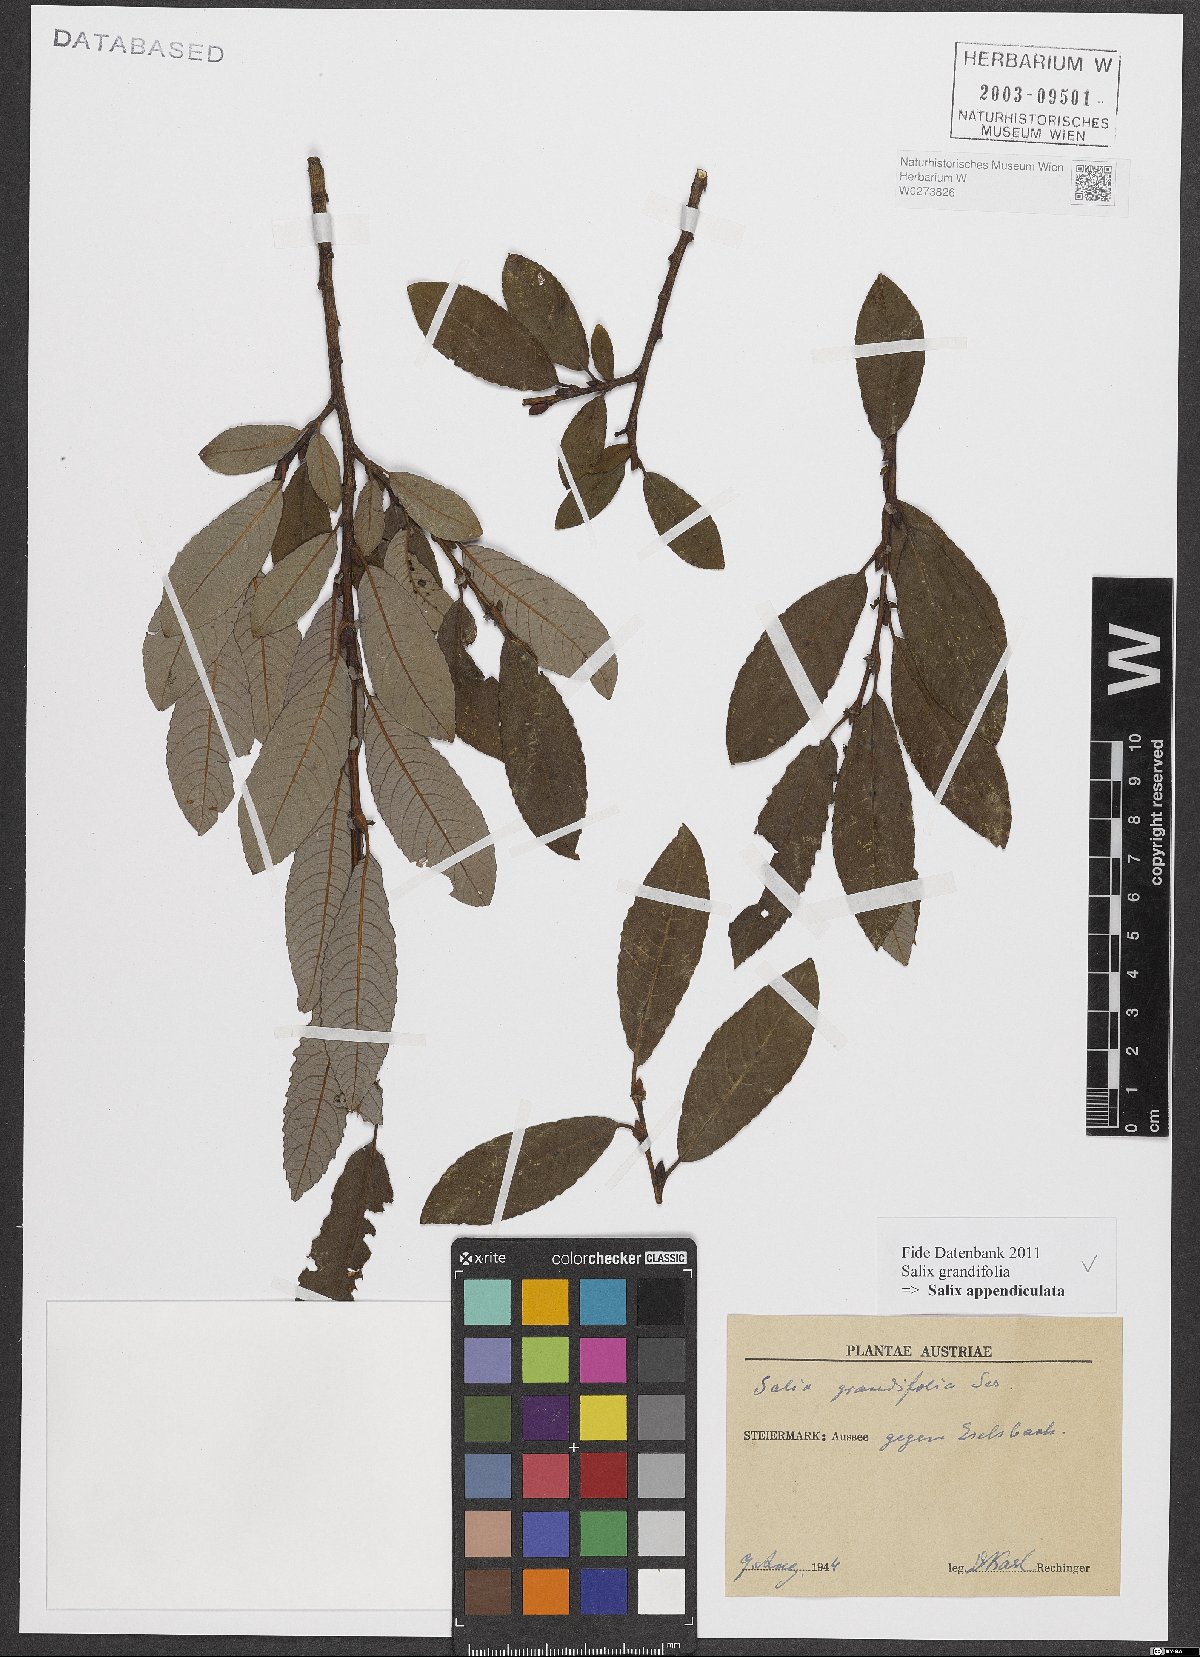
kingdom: Plantae
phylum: Tracheophyta
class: Magnoliopsida
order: Malpighiales
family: Salicaceae
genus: Salix
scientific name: Salix appendiculata
